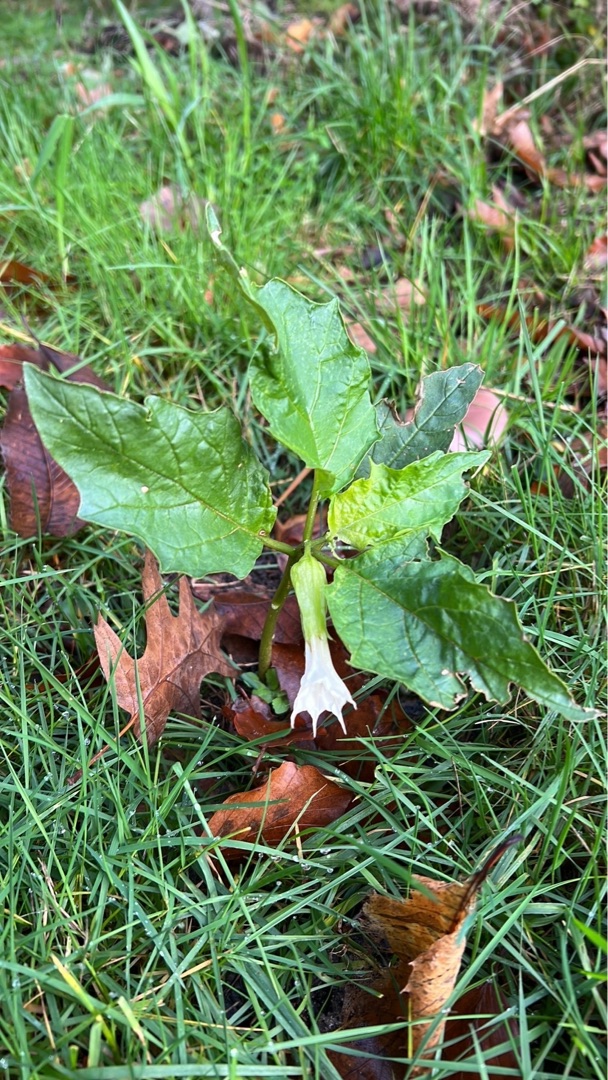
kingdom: Plantae
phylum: Tracheophyta
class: Magnoliopsida
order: Solanales
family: Solanaceae
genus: Datura
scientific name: Datura stramonium
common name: Pigæble
